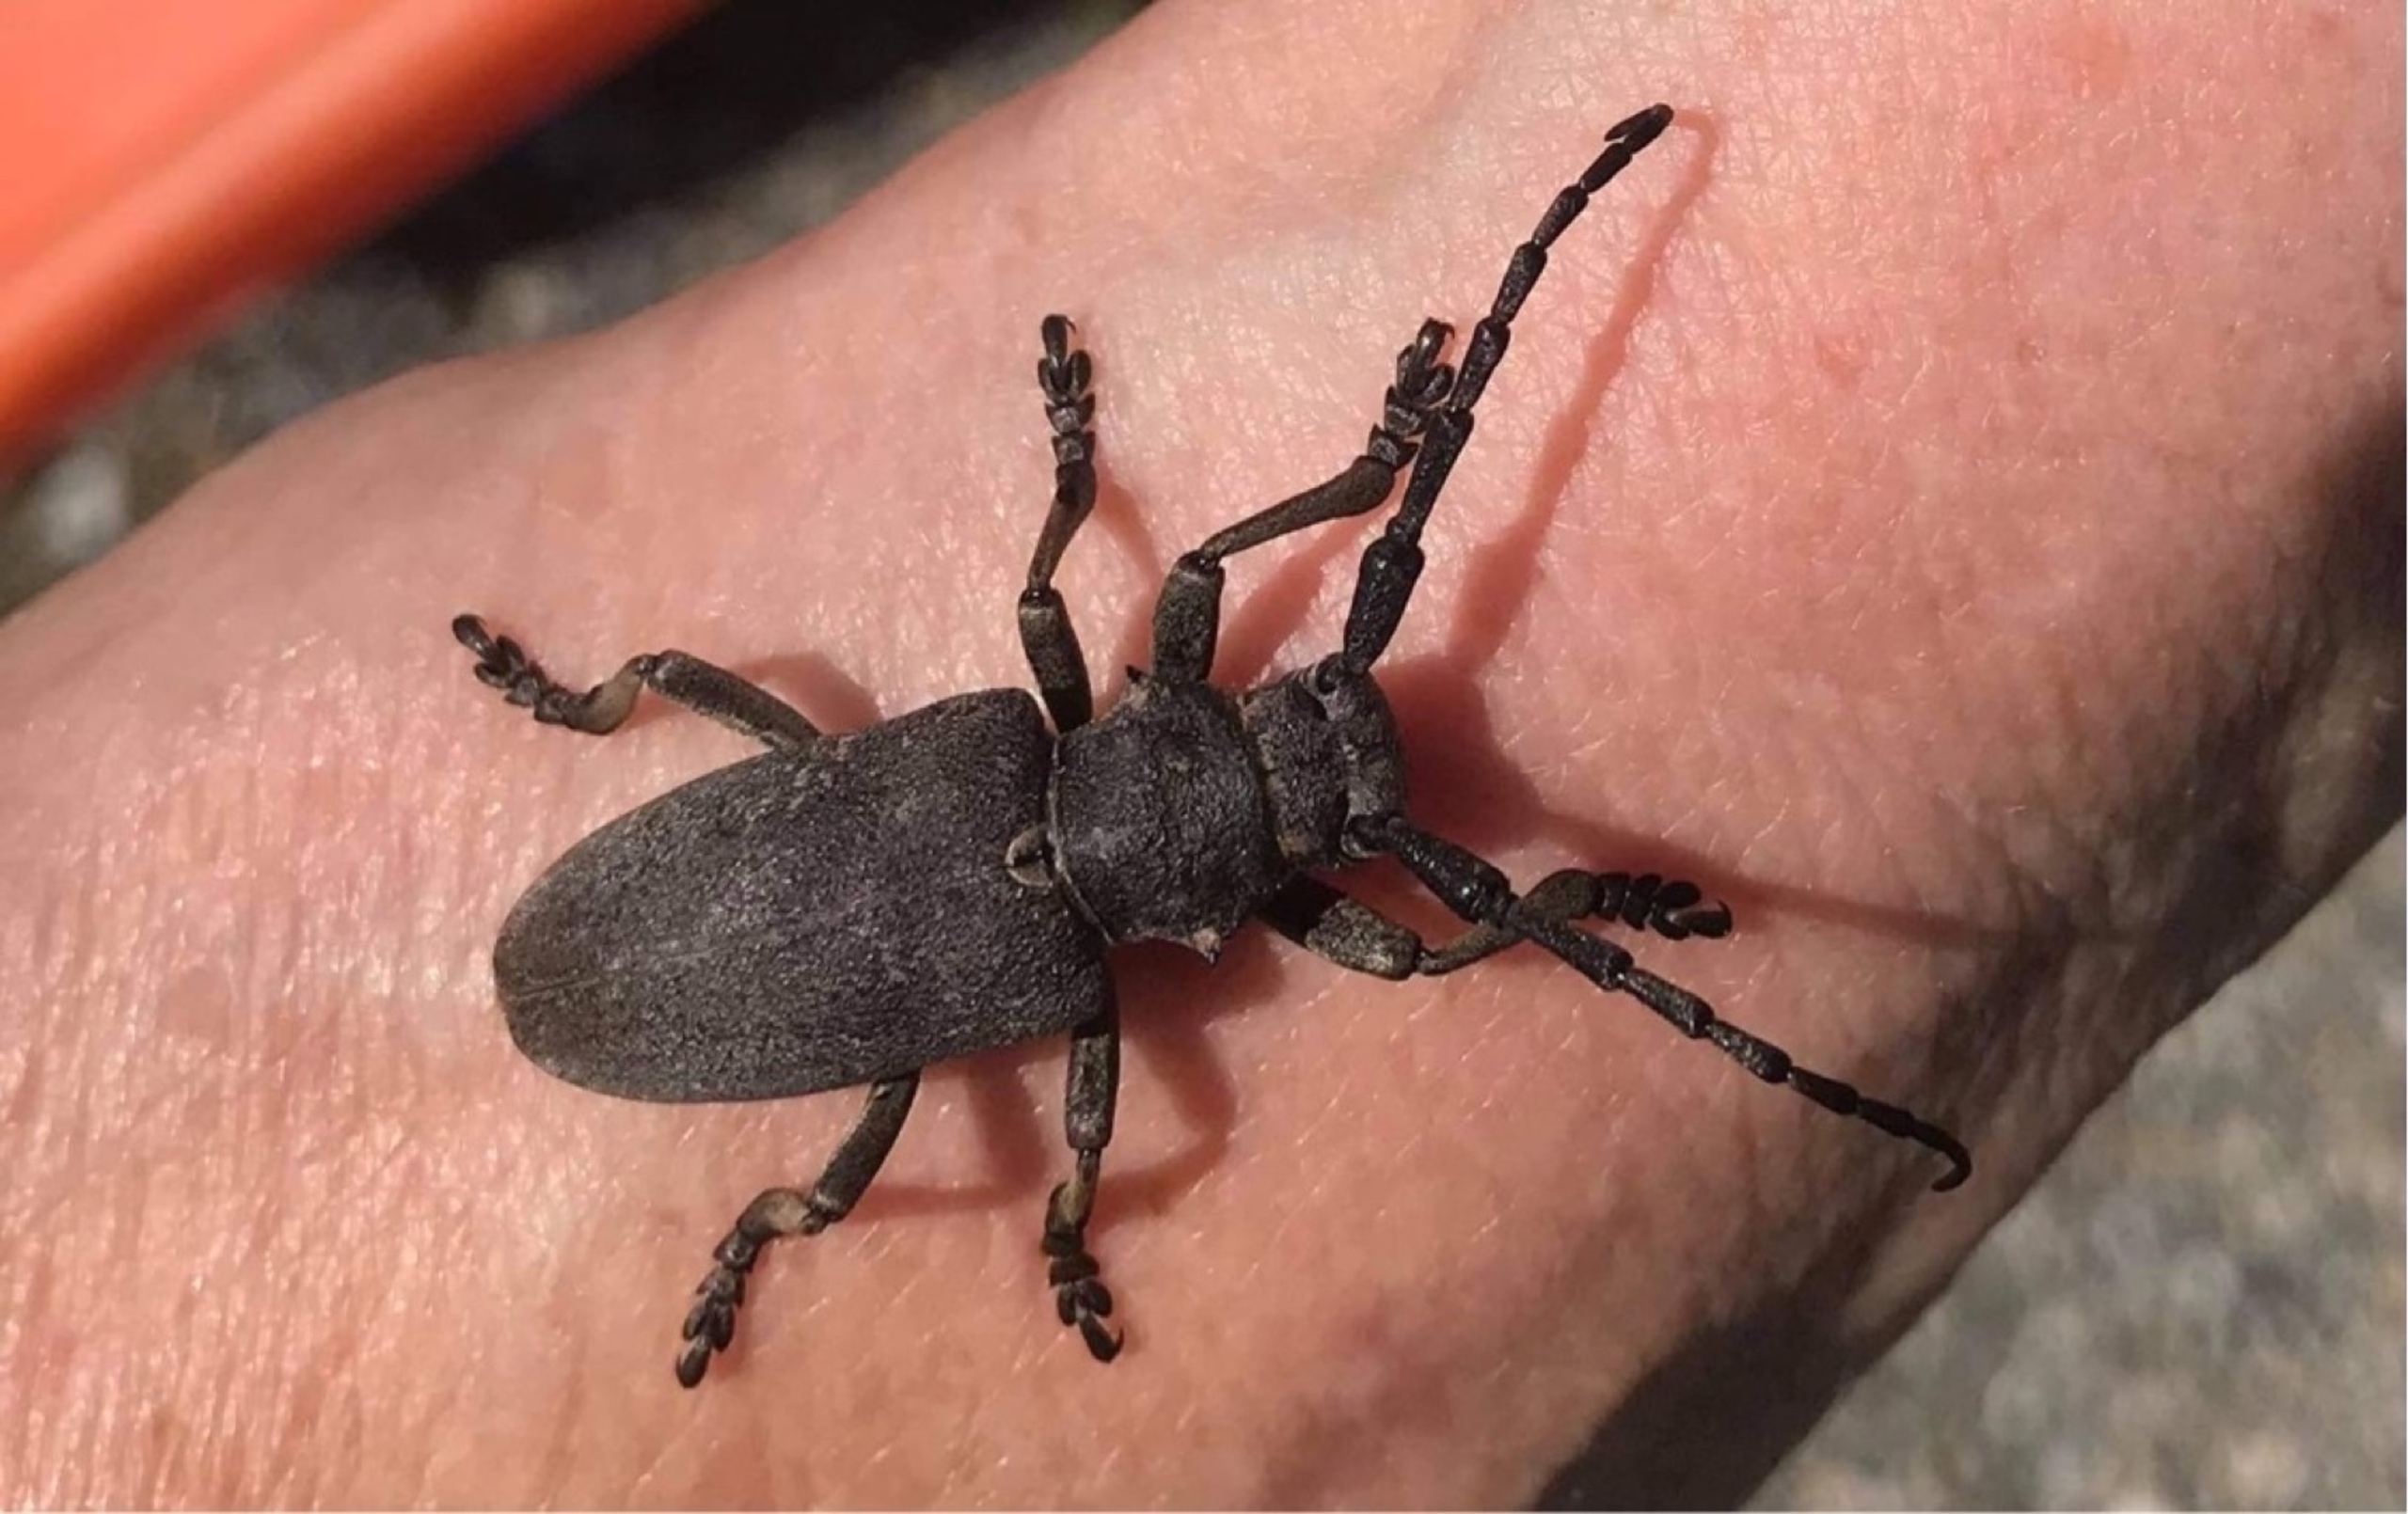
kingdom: Animalia
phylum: Arthropoda
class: Insecta
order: Coleoptera
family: Cerambycidae
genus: Lamia
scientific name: Lamia textor
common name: Væver
